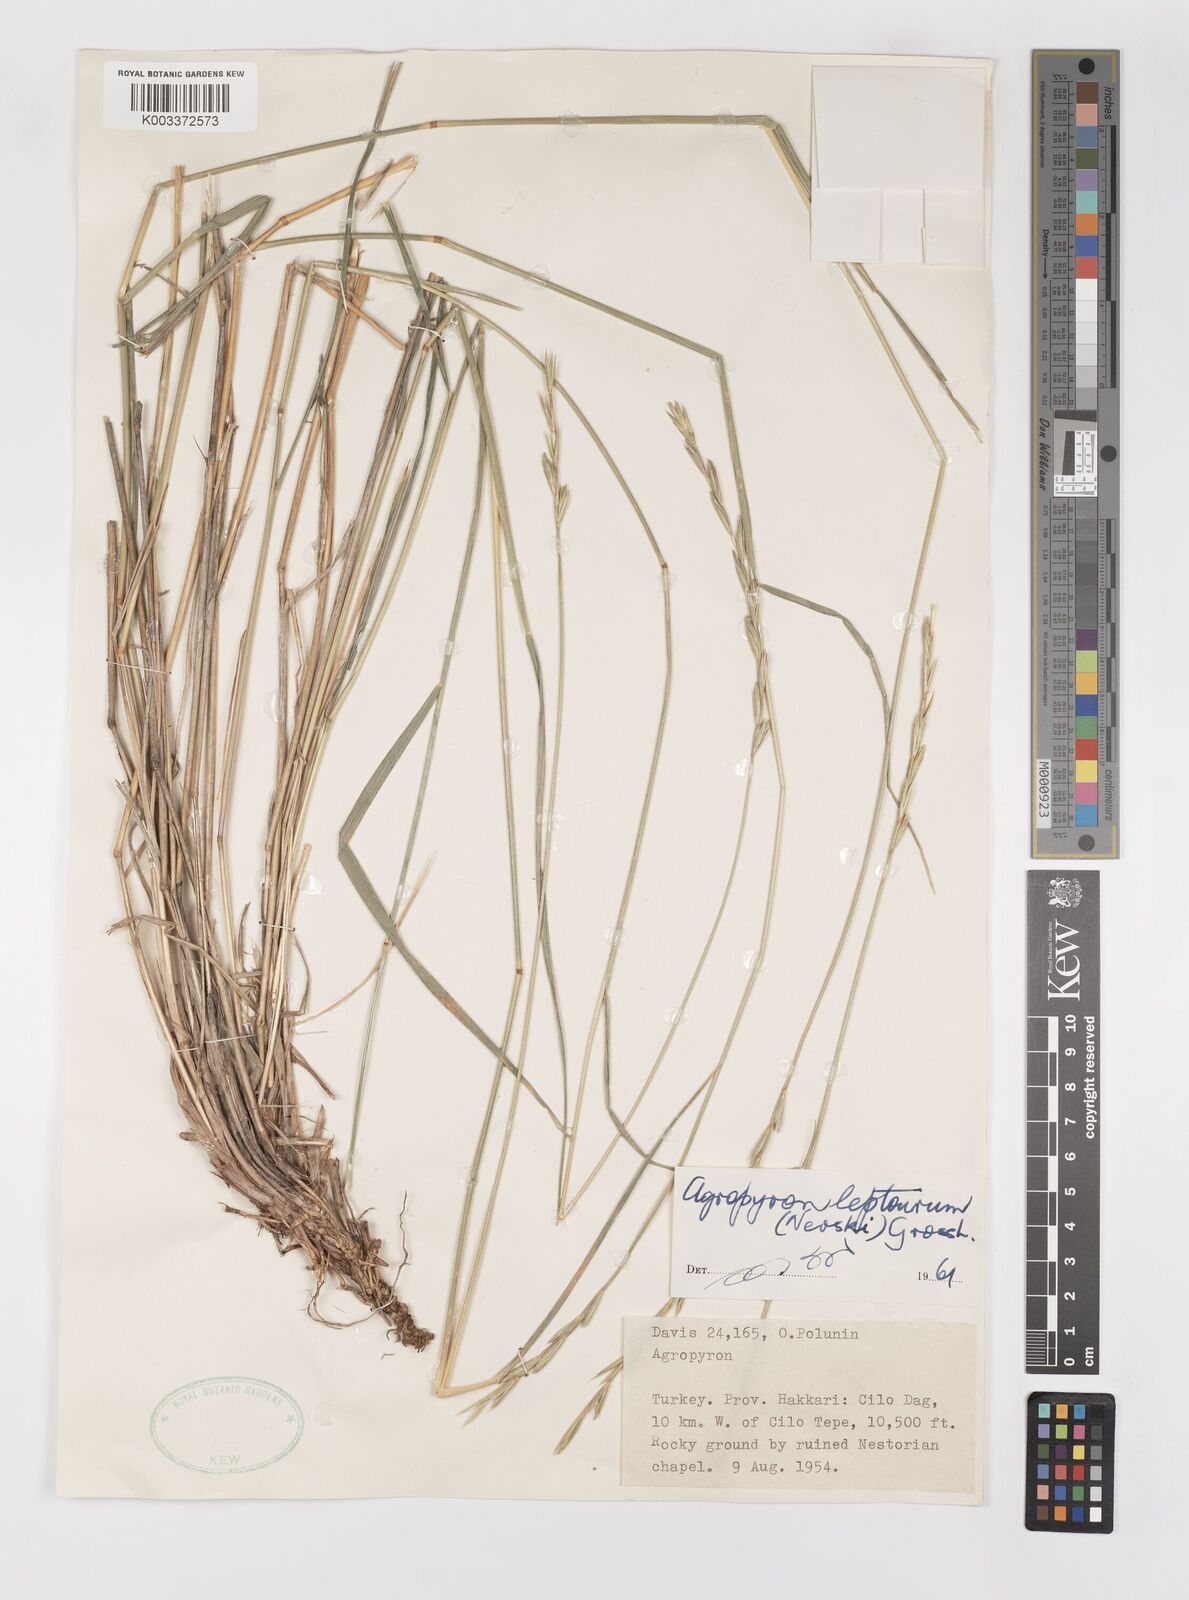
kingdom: Plantae
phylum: Tracheophyta
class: Liliopsida
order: Poales
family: Poaceae
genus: Elymus
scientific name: Elymus transhyrcanus
